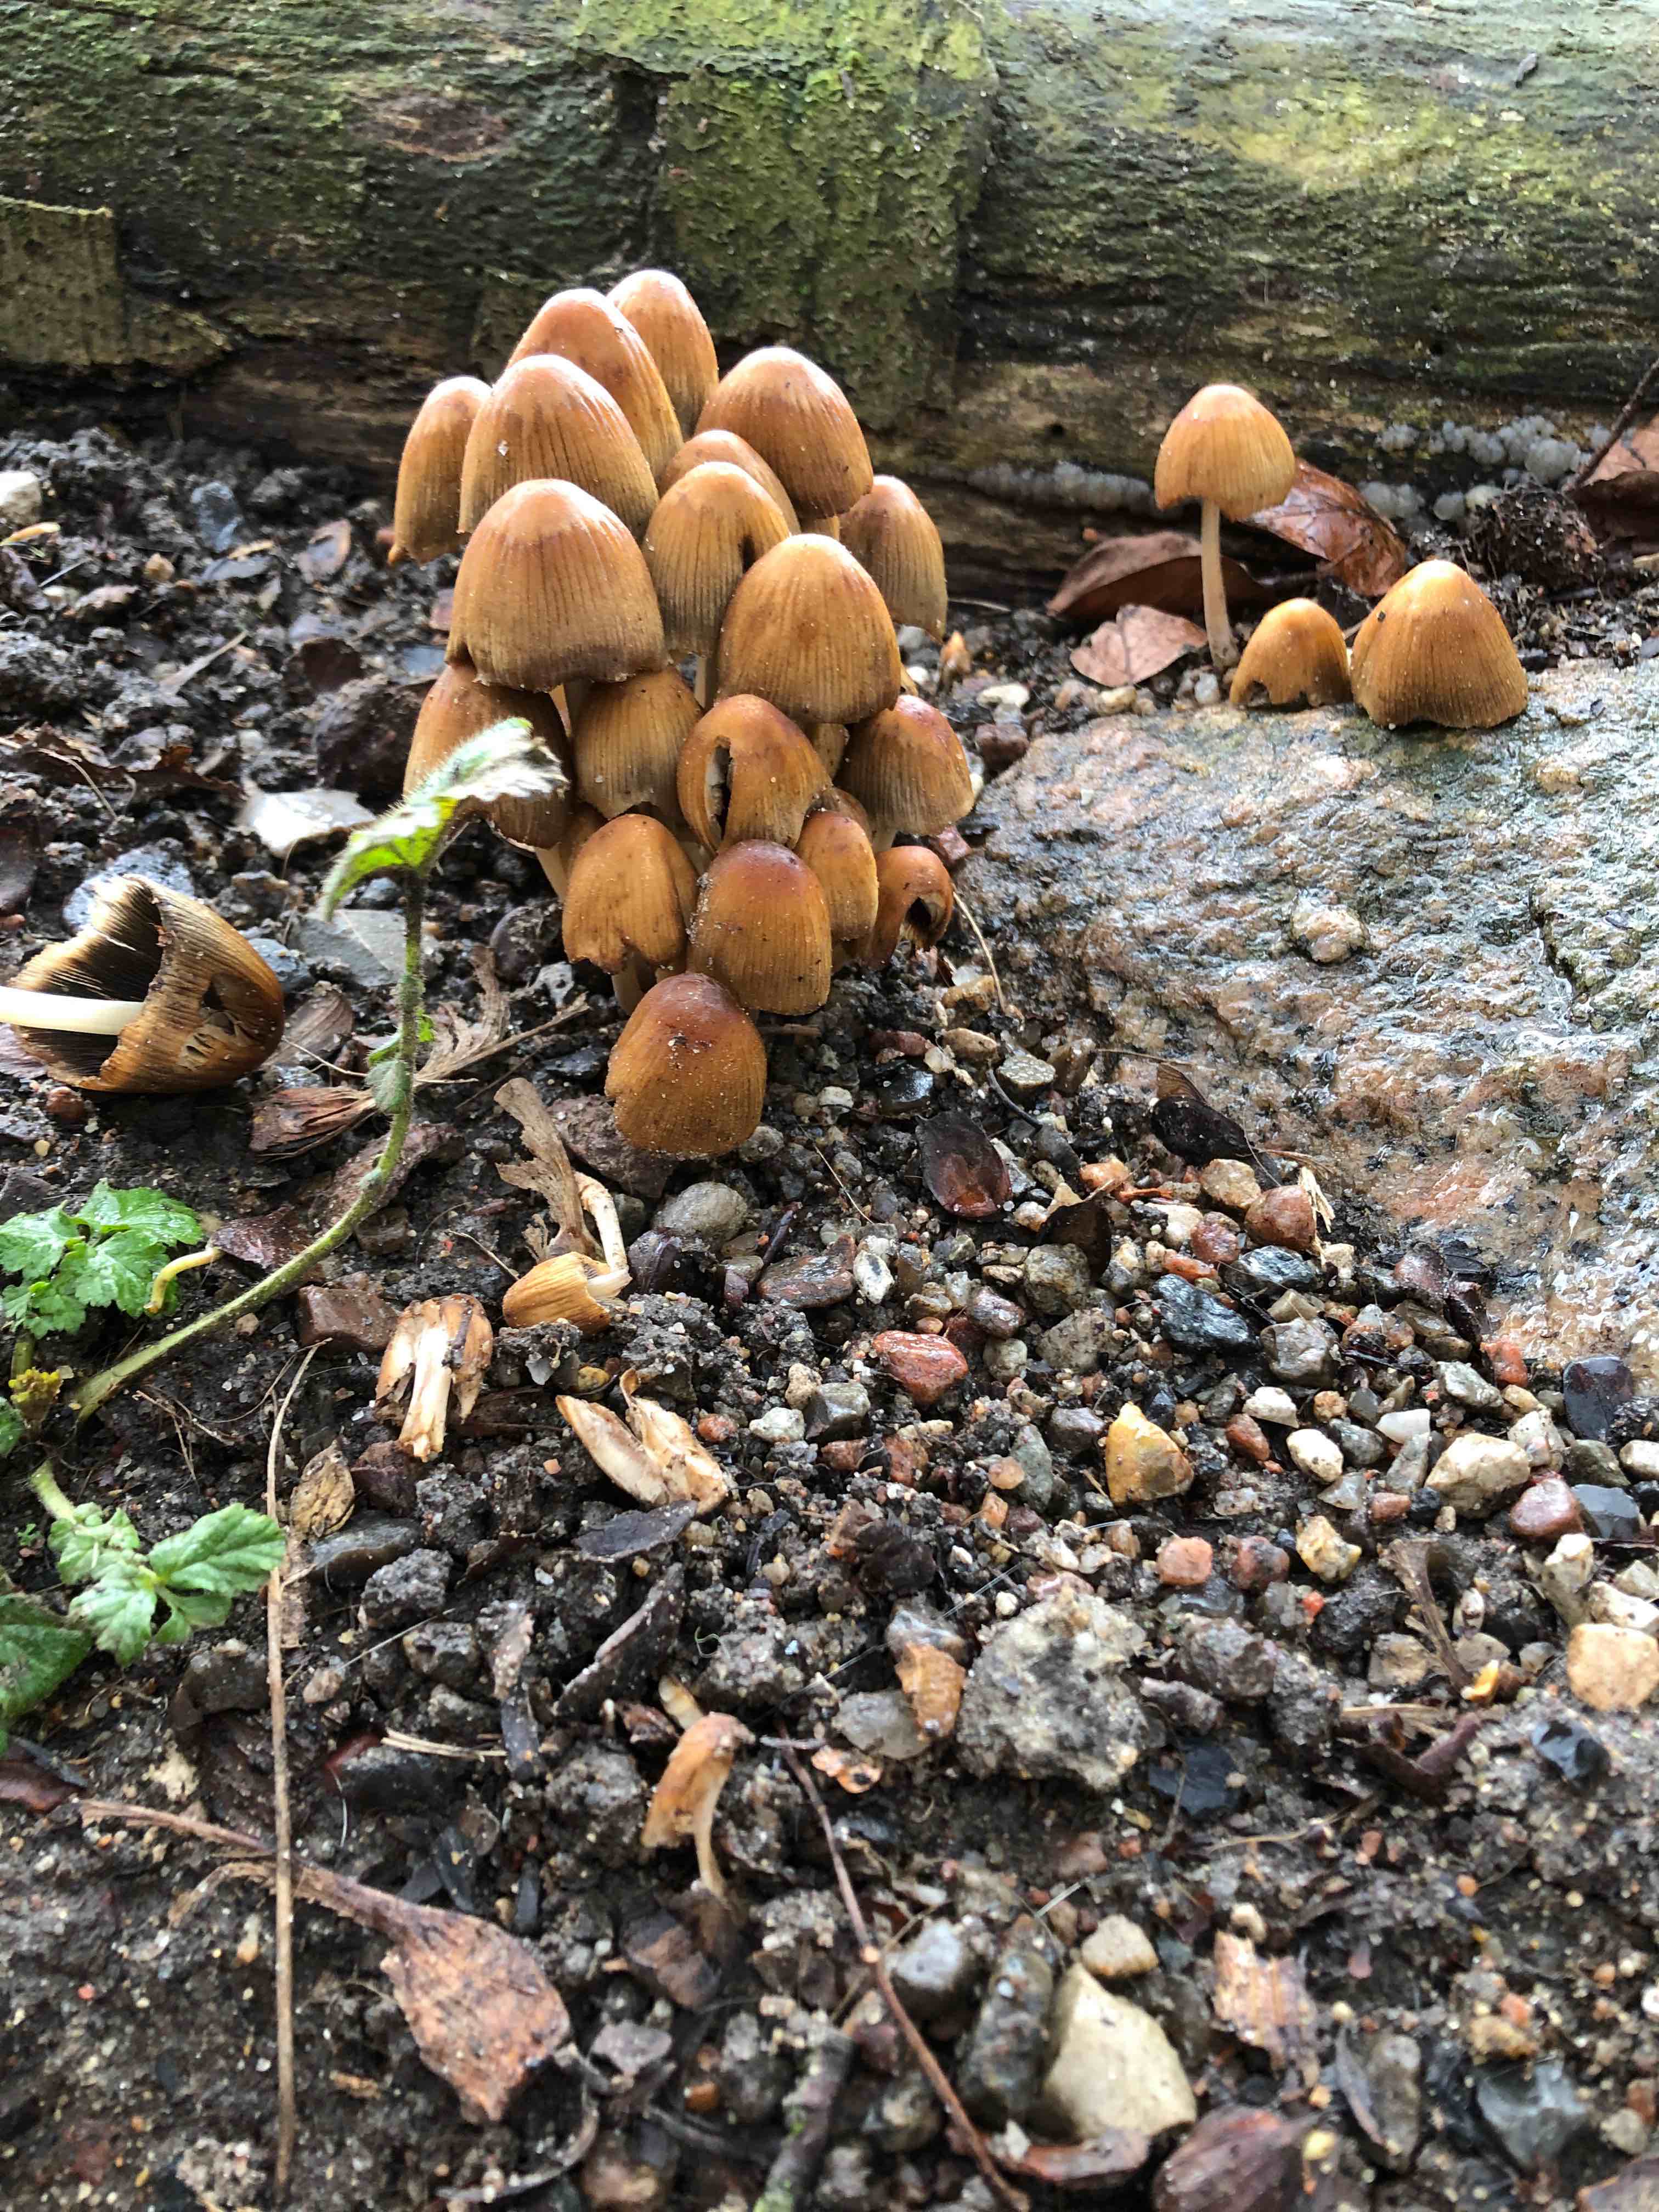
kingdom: Fungi
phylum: Basidiomycota
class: Agaricomycetes
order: Agaricales
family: Psathyrellaceae
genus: Coprinellus
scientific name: Coprinellus micaceus
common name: glimmer-blækhat
